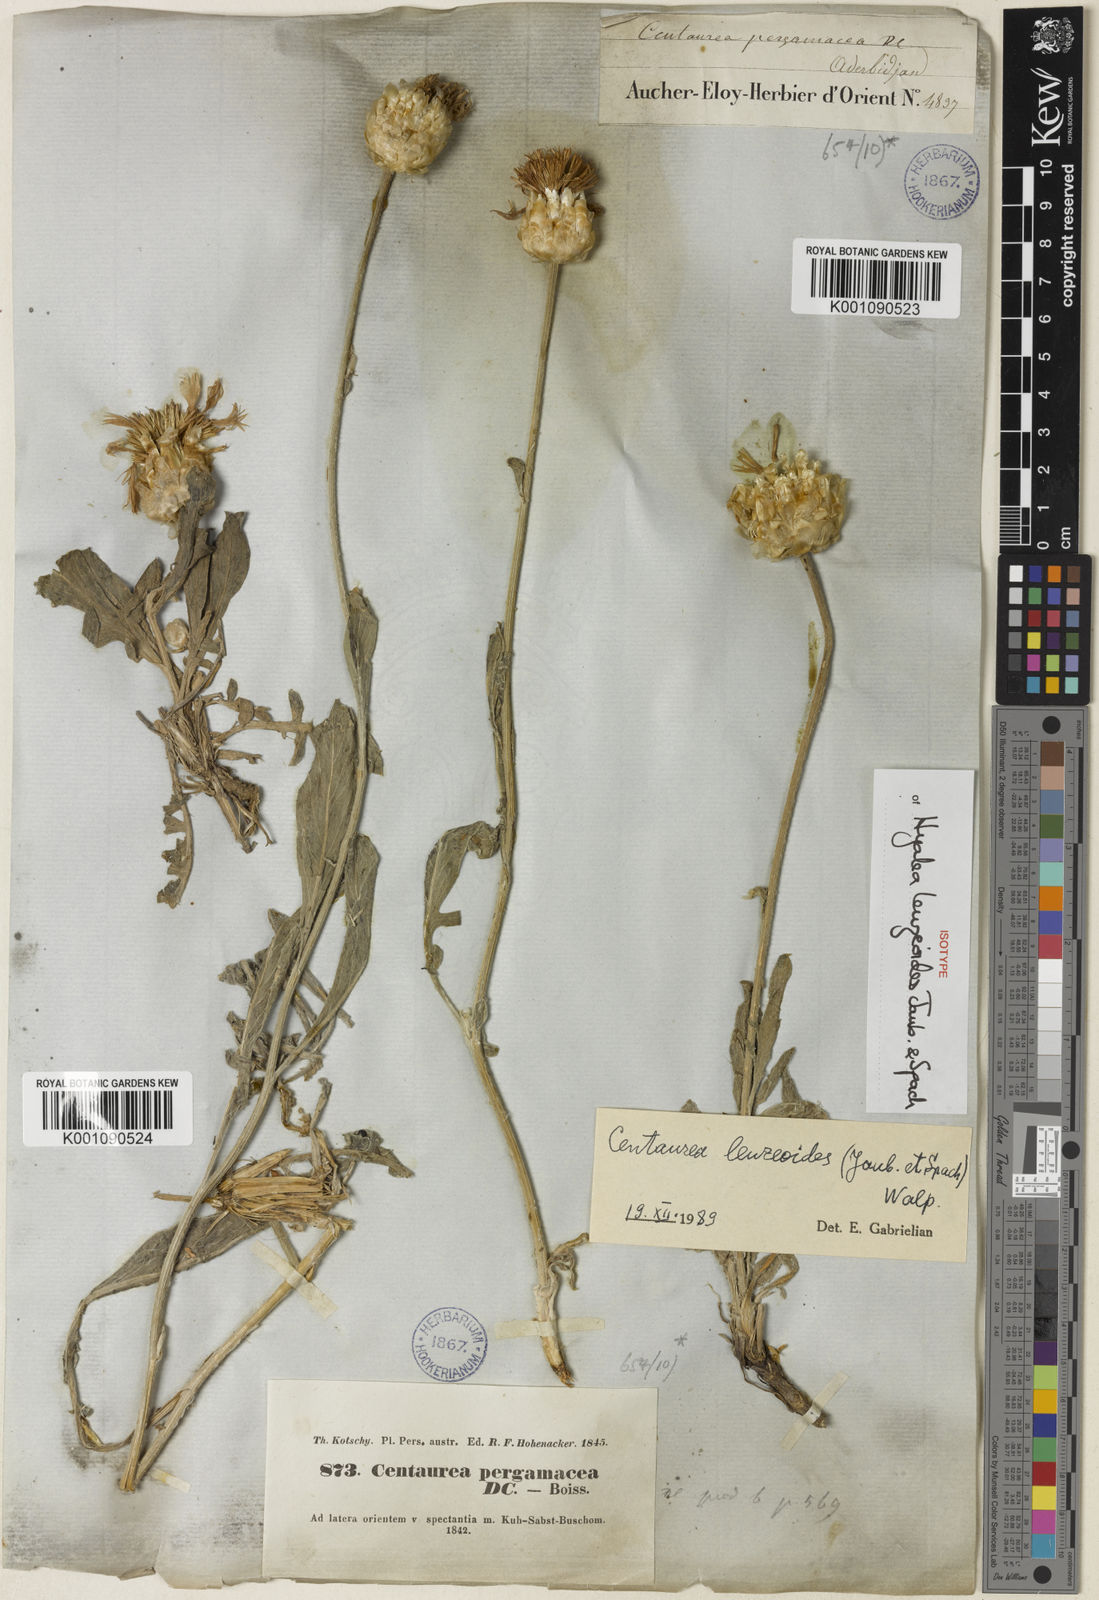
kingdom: Plantae
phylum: Tracheophyta
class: Magnoliopsida
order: Asterales
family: Asteraceae
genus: Psephellus
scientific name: Psephellus leuzeoides
